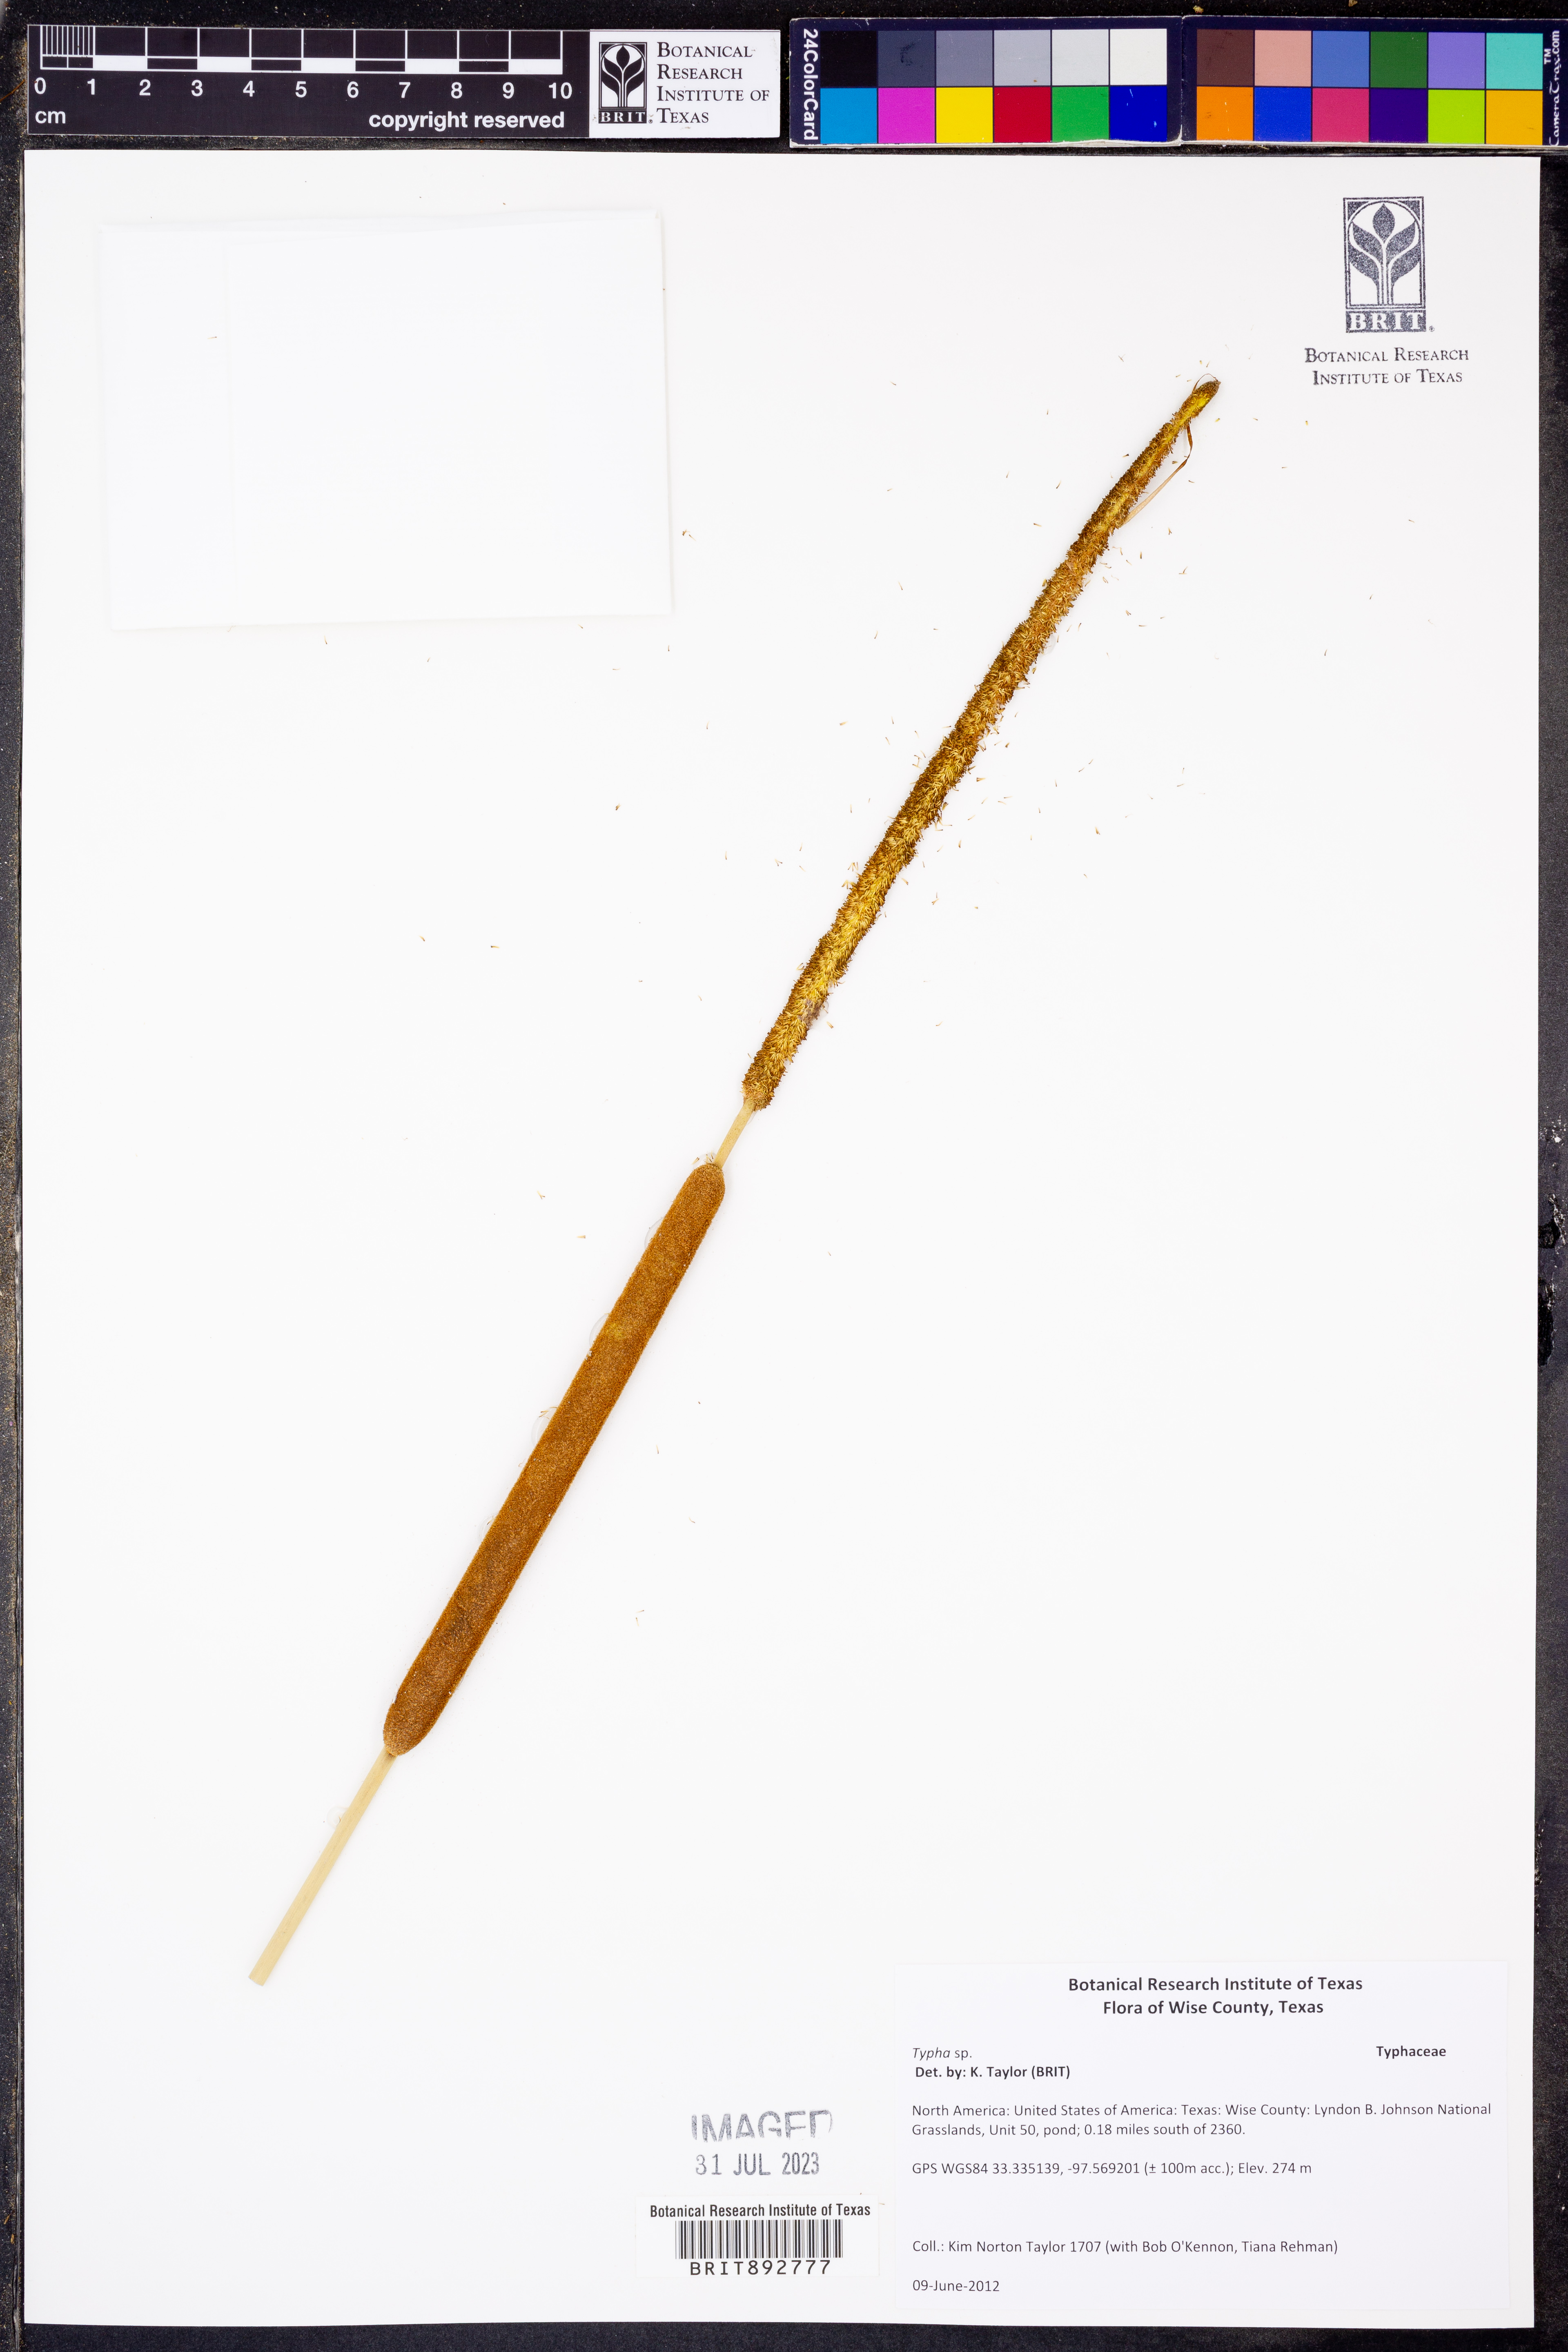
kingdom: Plantae
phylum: Tracheophyta
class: Liliopsida
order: Poales
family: Typhaceae
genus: Typha
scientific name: Typha domingensis
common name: Southern cattail
